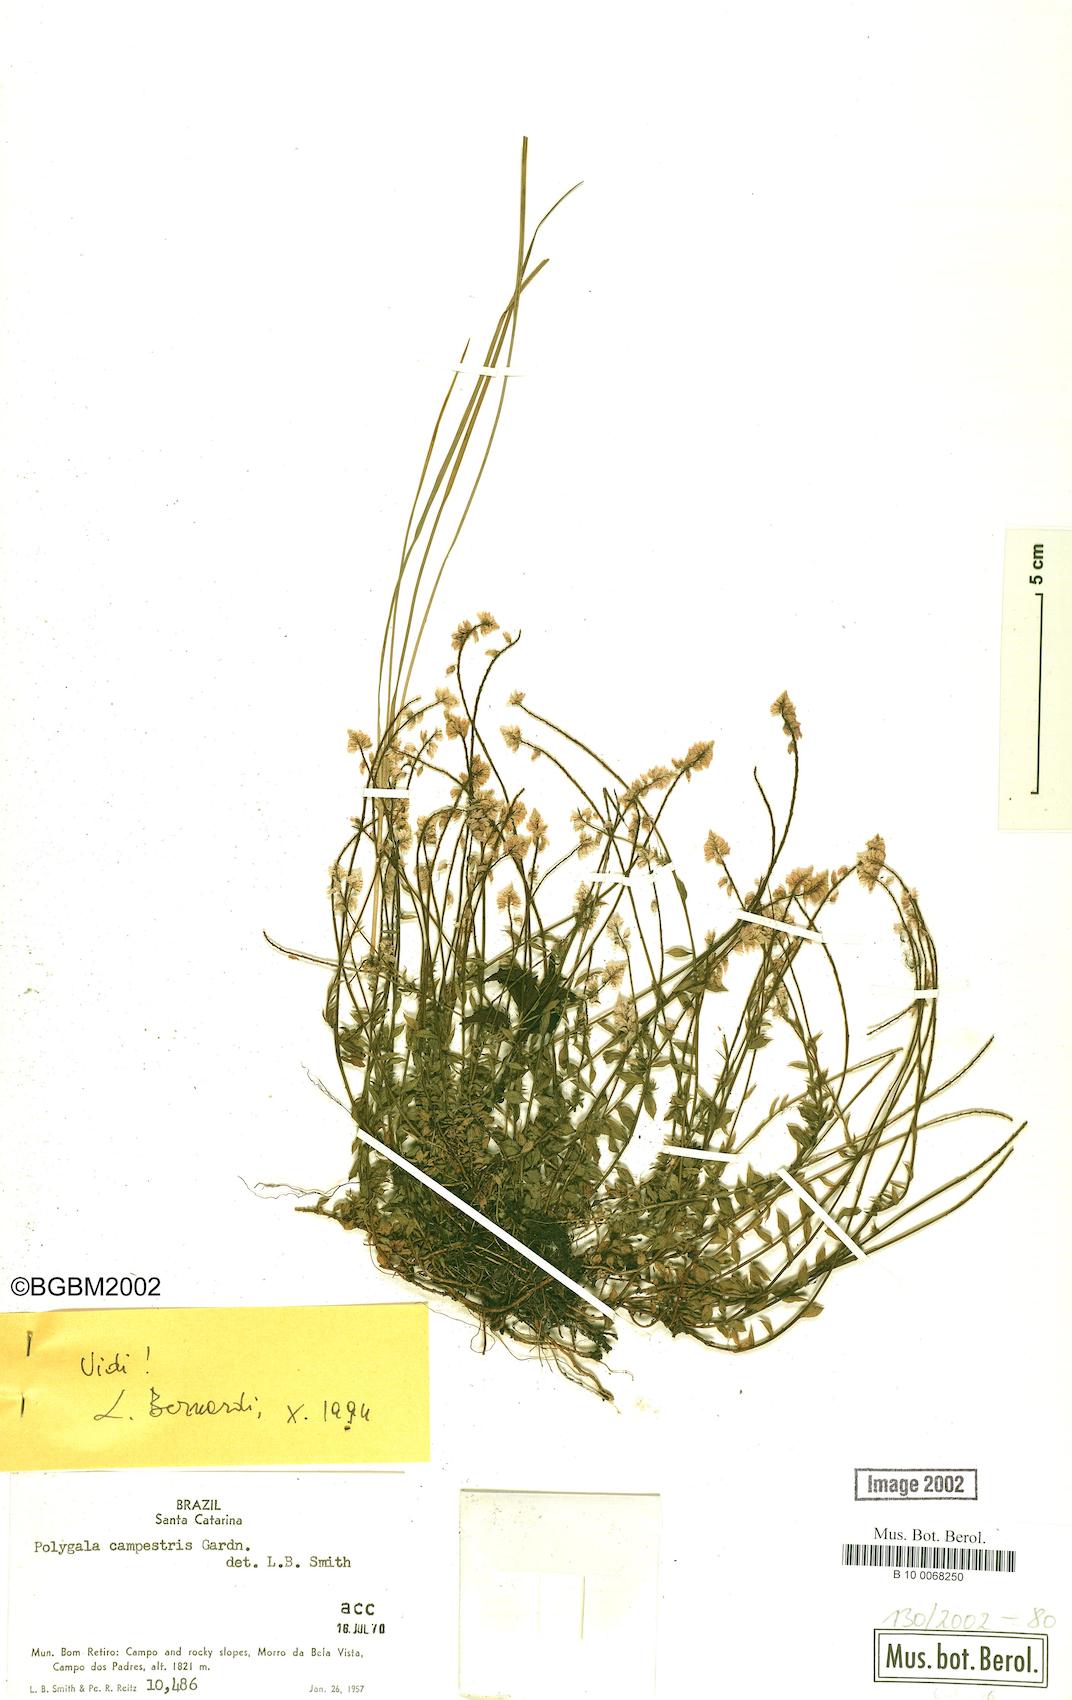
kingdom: Plantae
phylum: Tracheophyta
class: Magnoliopsida
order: Fabales
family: Polygalaceae
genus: Polygala
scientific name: Polygala campestris
